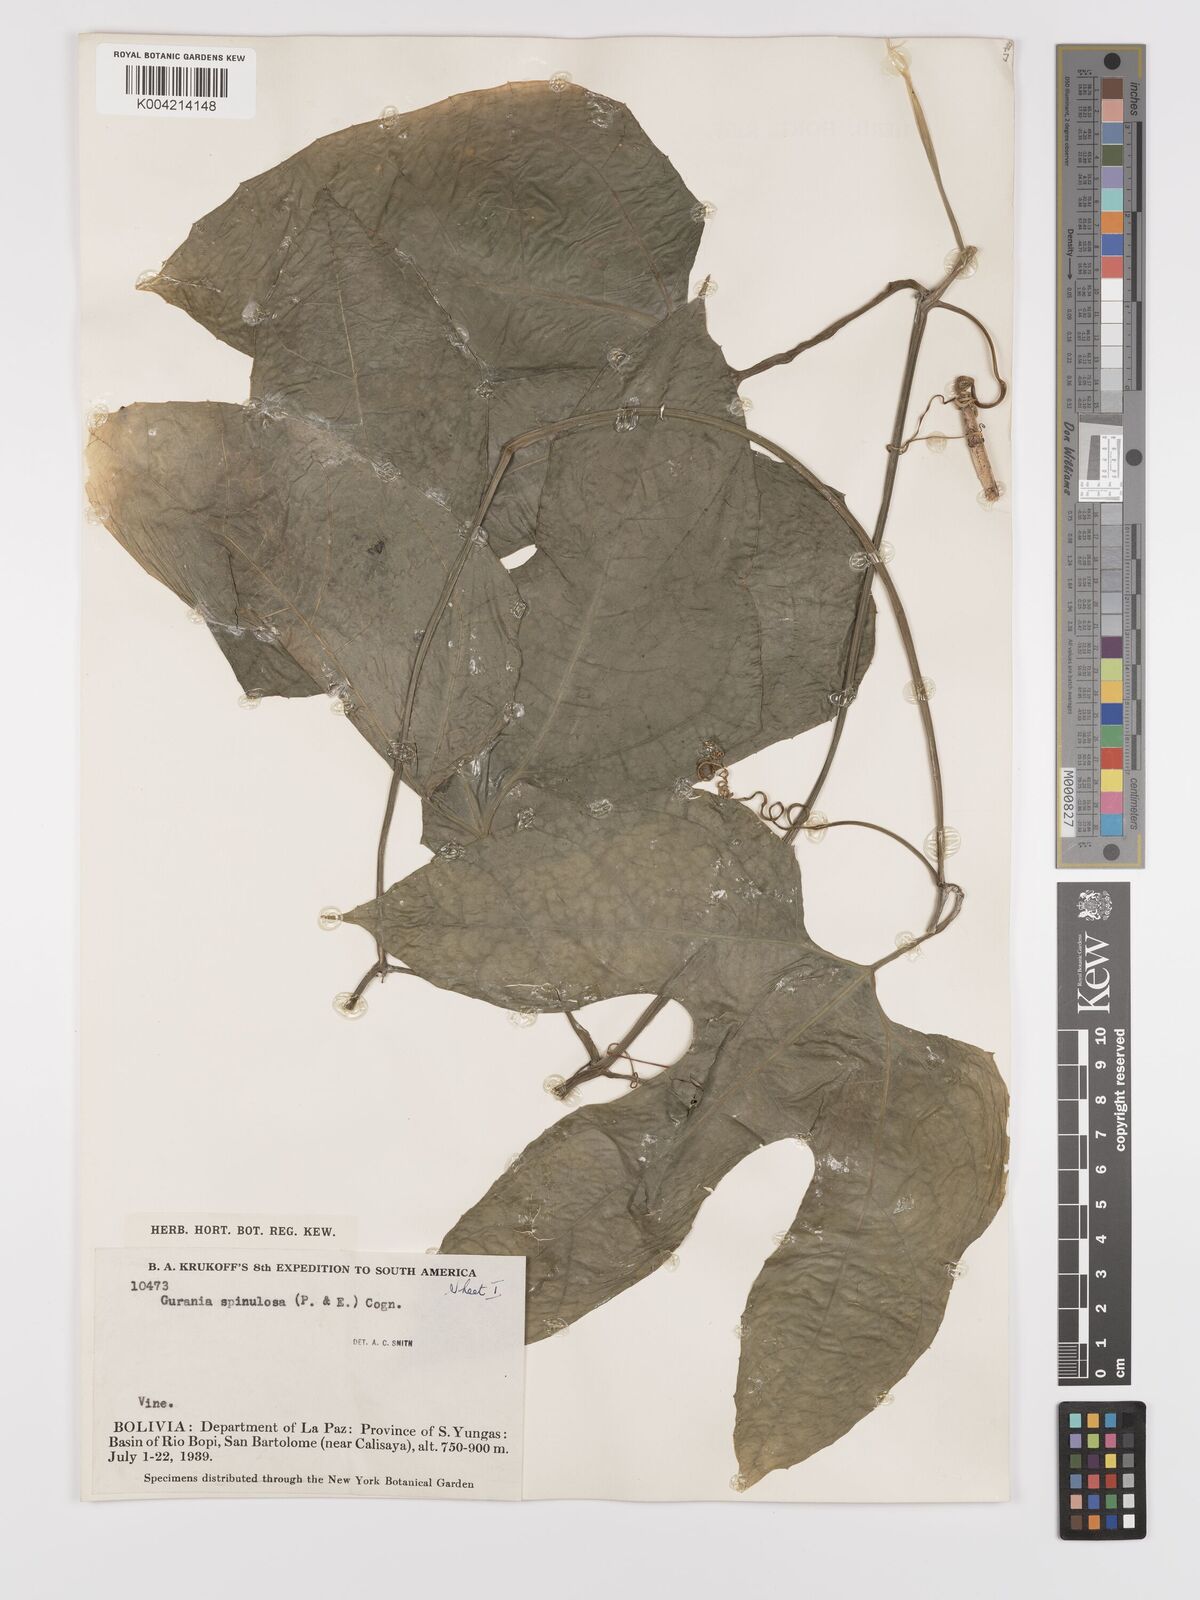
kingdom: Plantae
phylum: Tracheophyta
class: Magnoliopsida
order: Cucurbitales
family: Cucurbitaceae
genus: Gurania
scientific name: Gurania capitata
